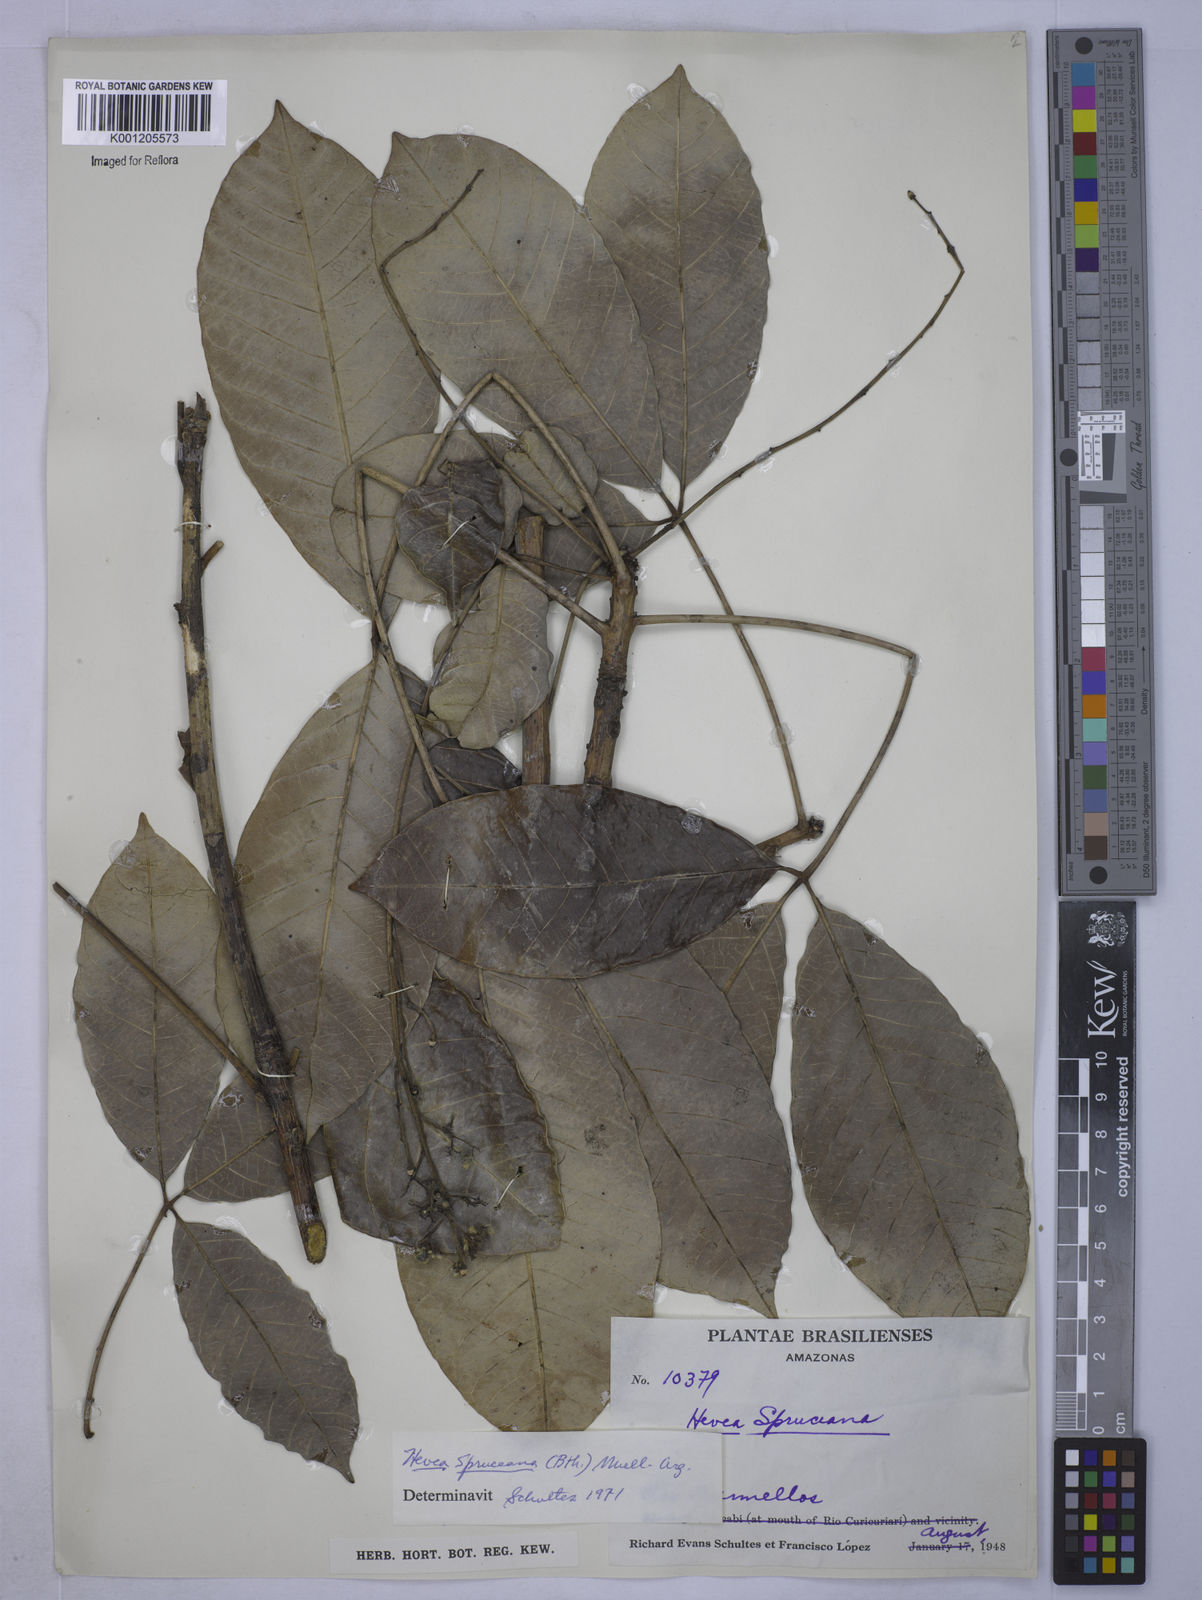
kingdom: Plantae
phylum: Tracheophyta
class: Magnoliopsida
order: Malpighiales
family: Euphorbiaceae
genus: Hevea
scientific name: Hevea
